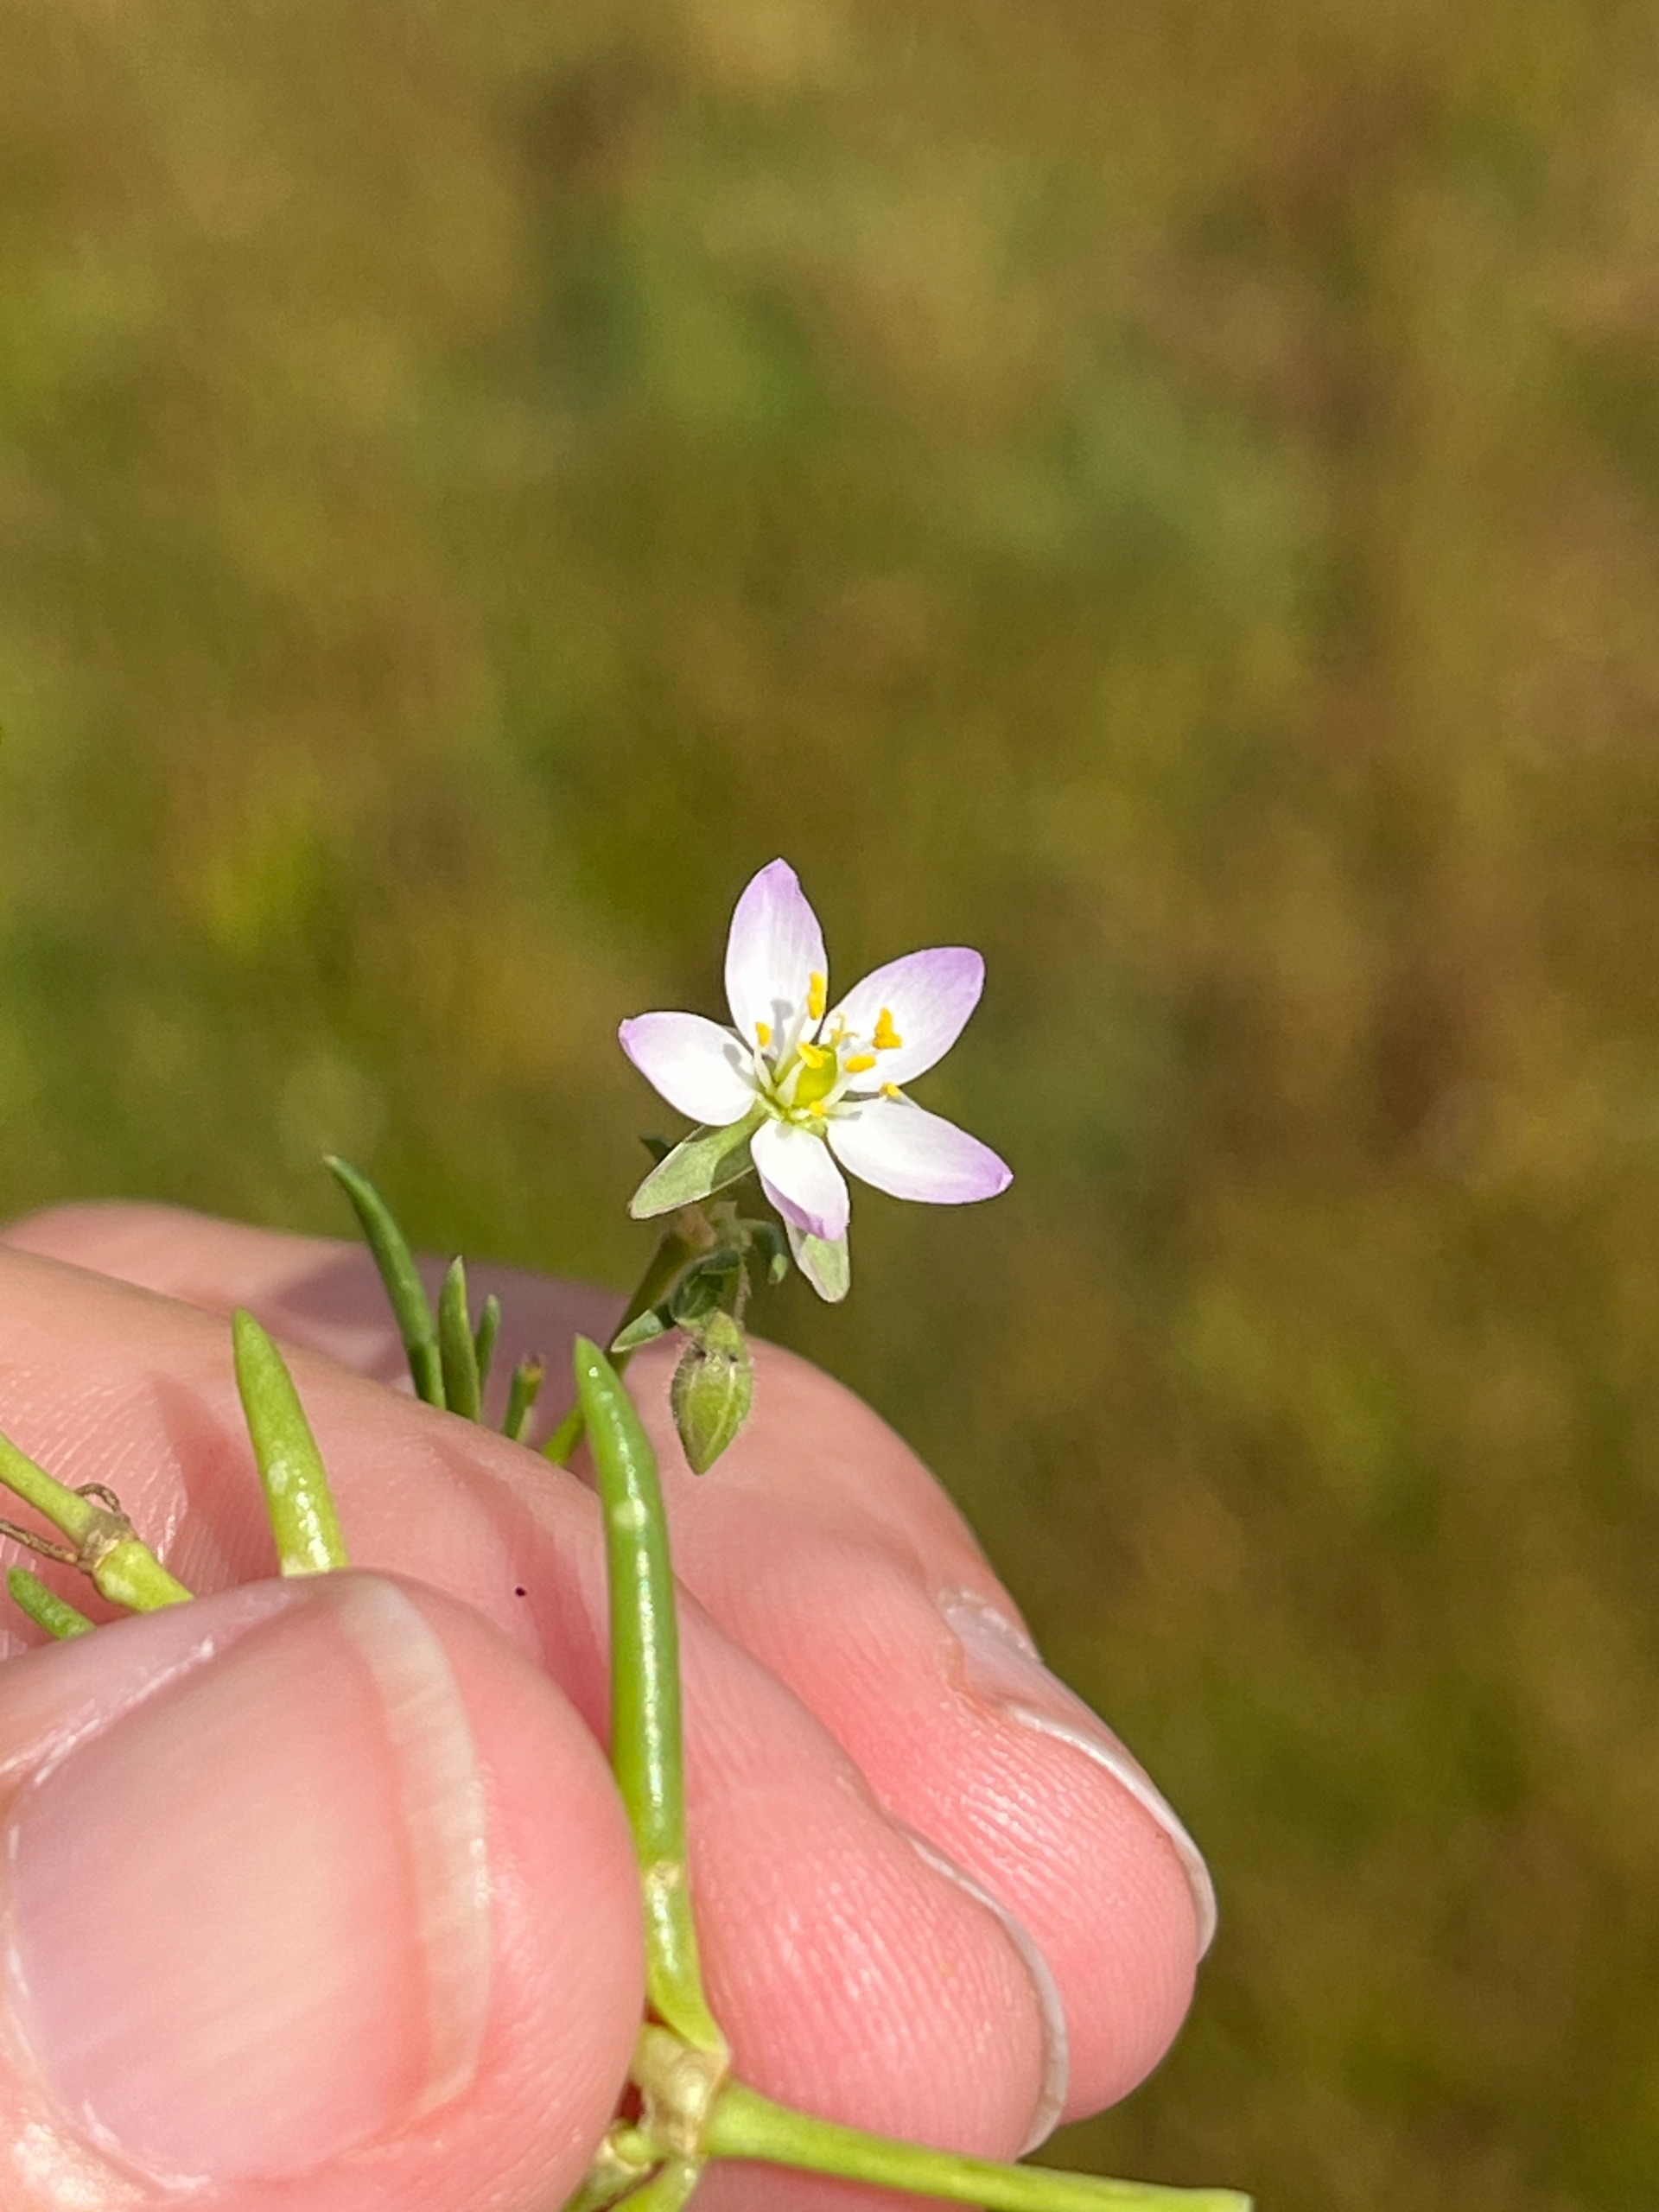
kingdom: Plantae
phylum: Tracheophyta
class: Magnoliopsida
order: Caryophyllales
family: Caryophyllaceae
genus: Spergularia
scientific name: Spergularia media
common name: Vingefrøet hindeknæ
